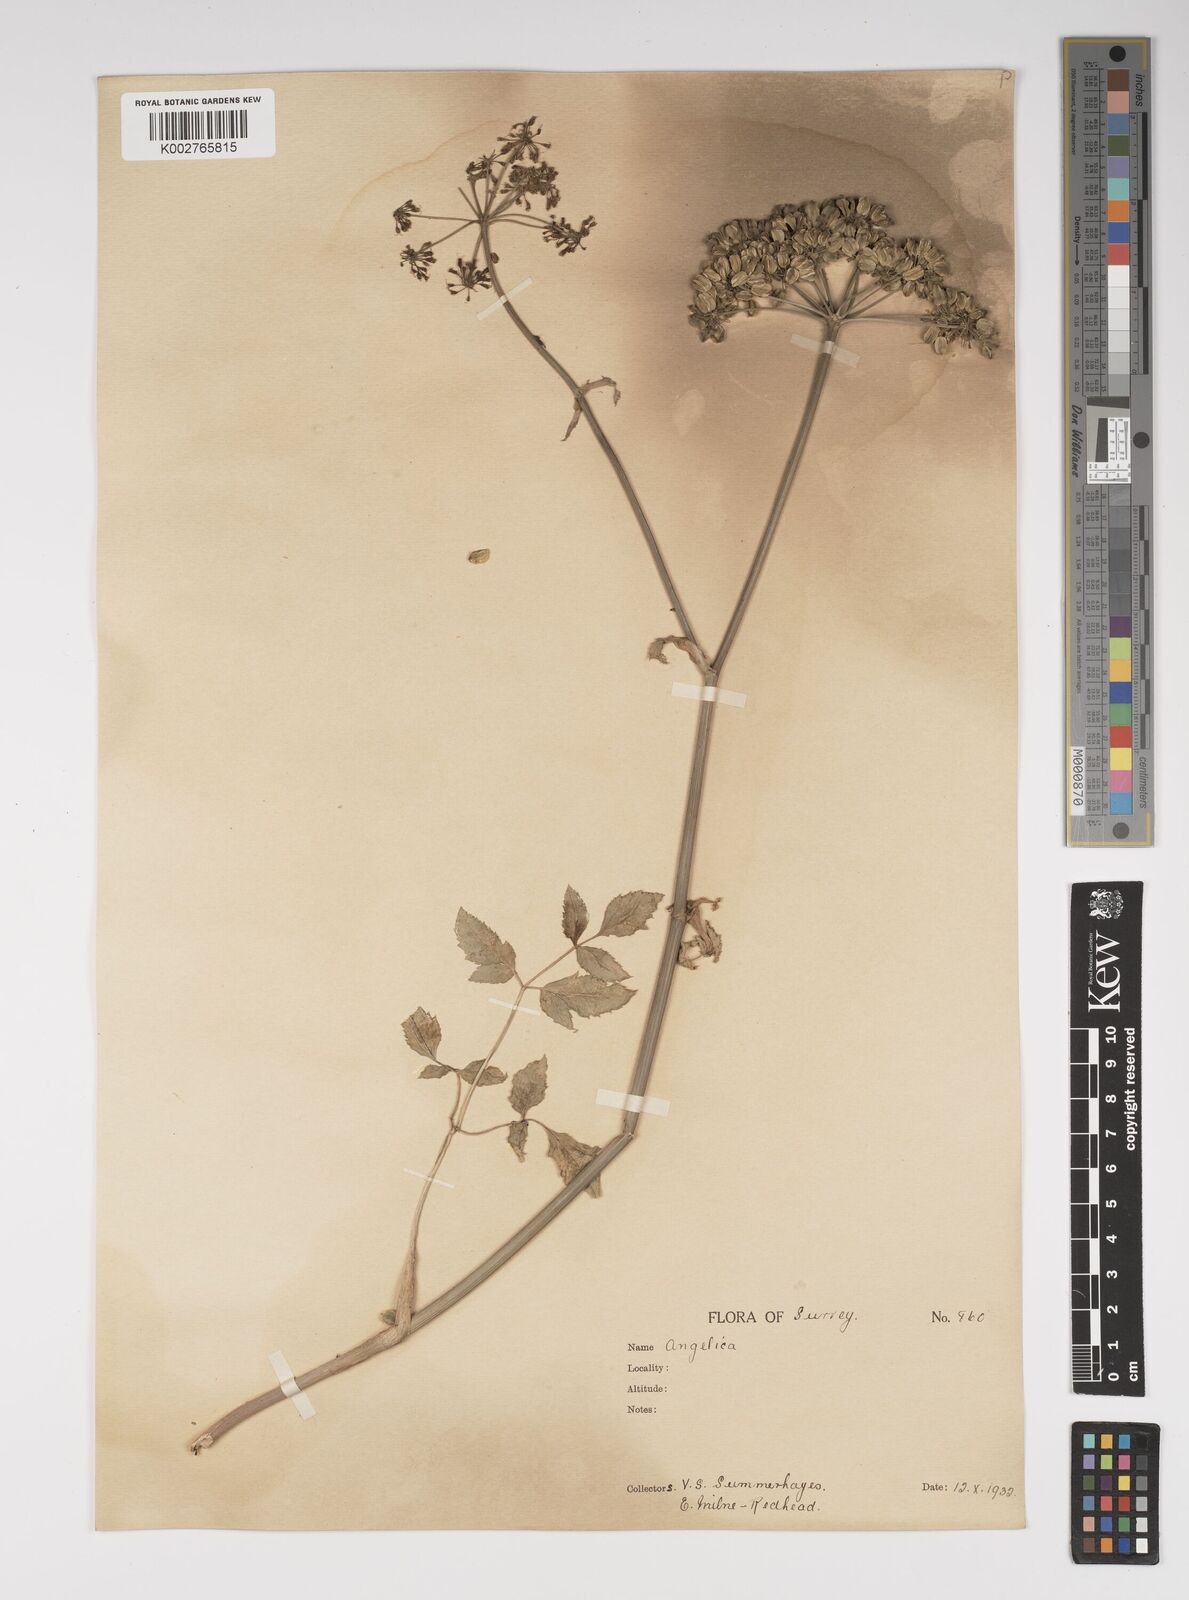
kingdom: Plantae
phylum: Tracheophyta
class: Magnoliopsida
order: Apiales
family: Apiaceae
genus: Angelica
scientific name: Angelica sylvestris
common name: Wild angelica
